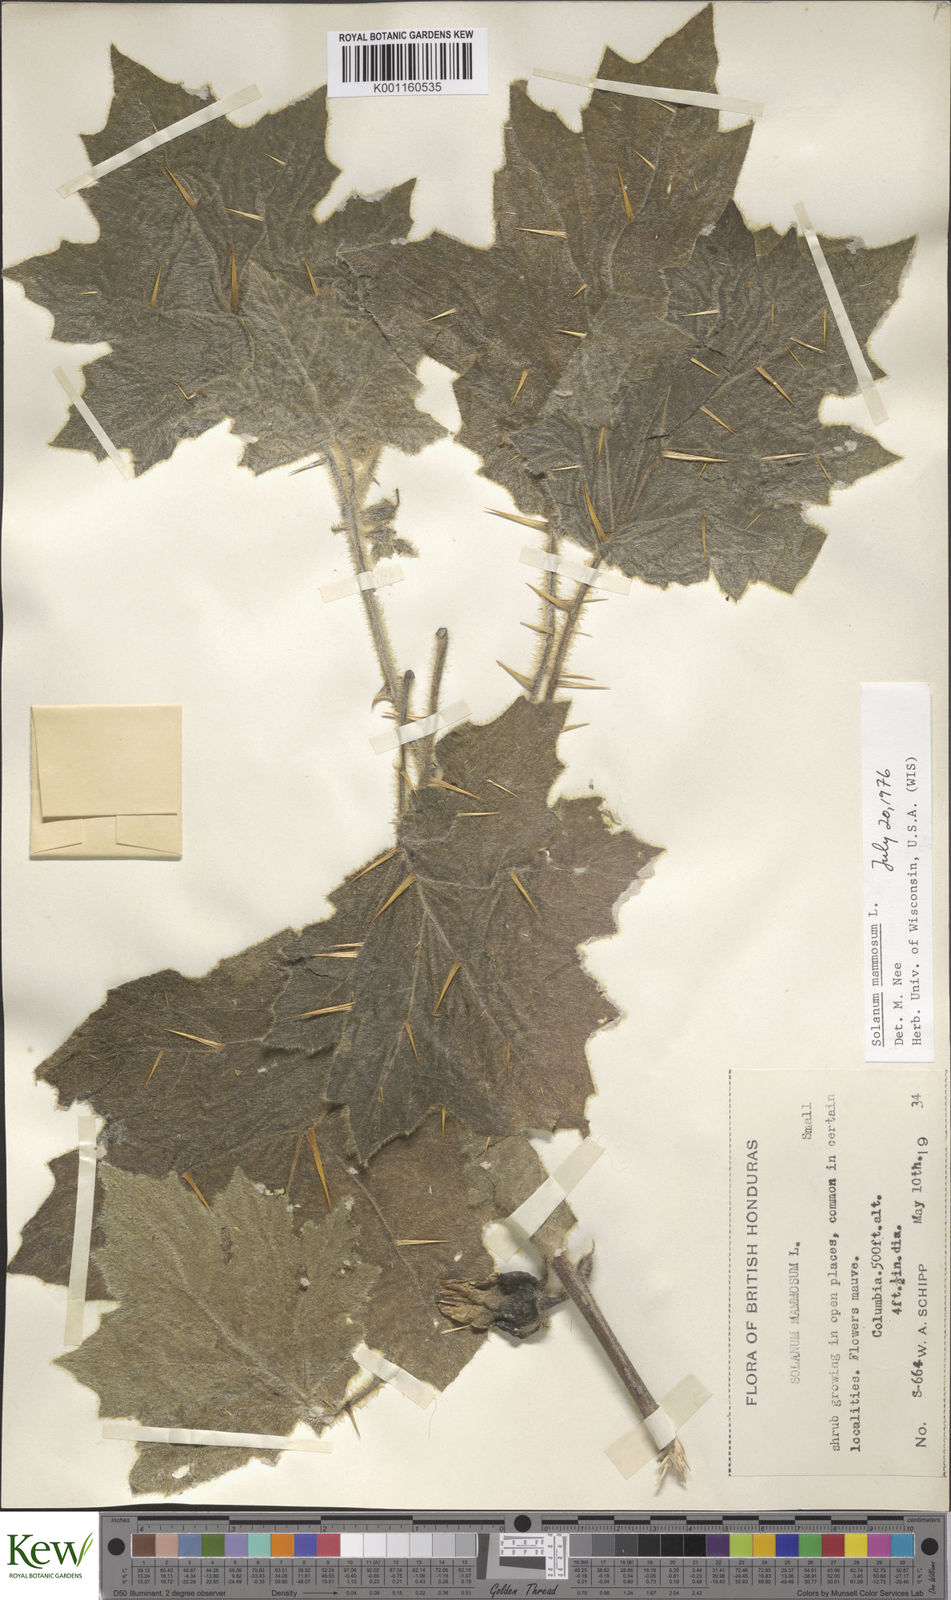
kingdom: Plantae
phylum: Tracheophyta
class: Magnoliopsida
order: Solanales
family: Solanaceae
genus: Solanum
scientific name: Solanum mammosum
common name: Nipple fruit
